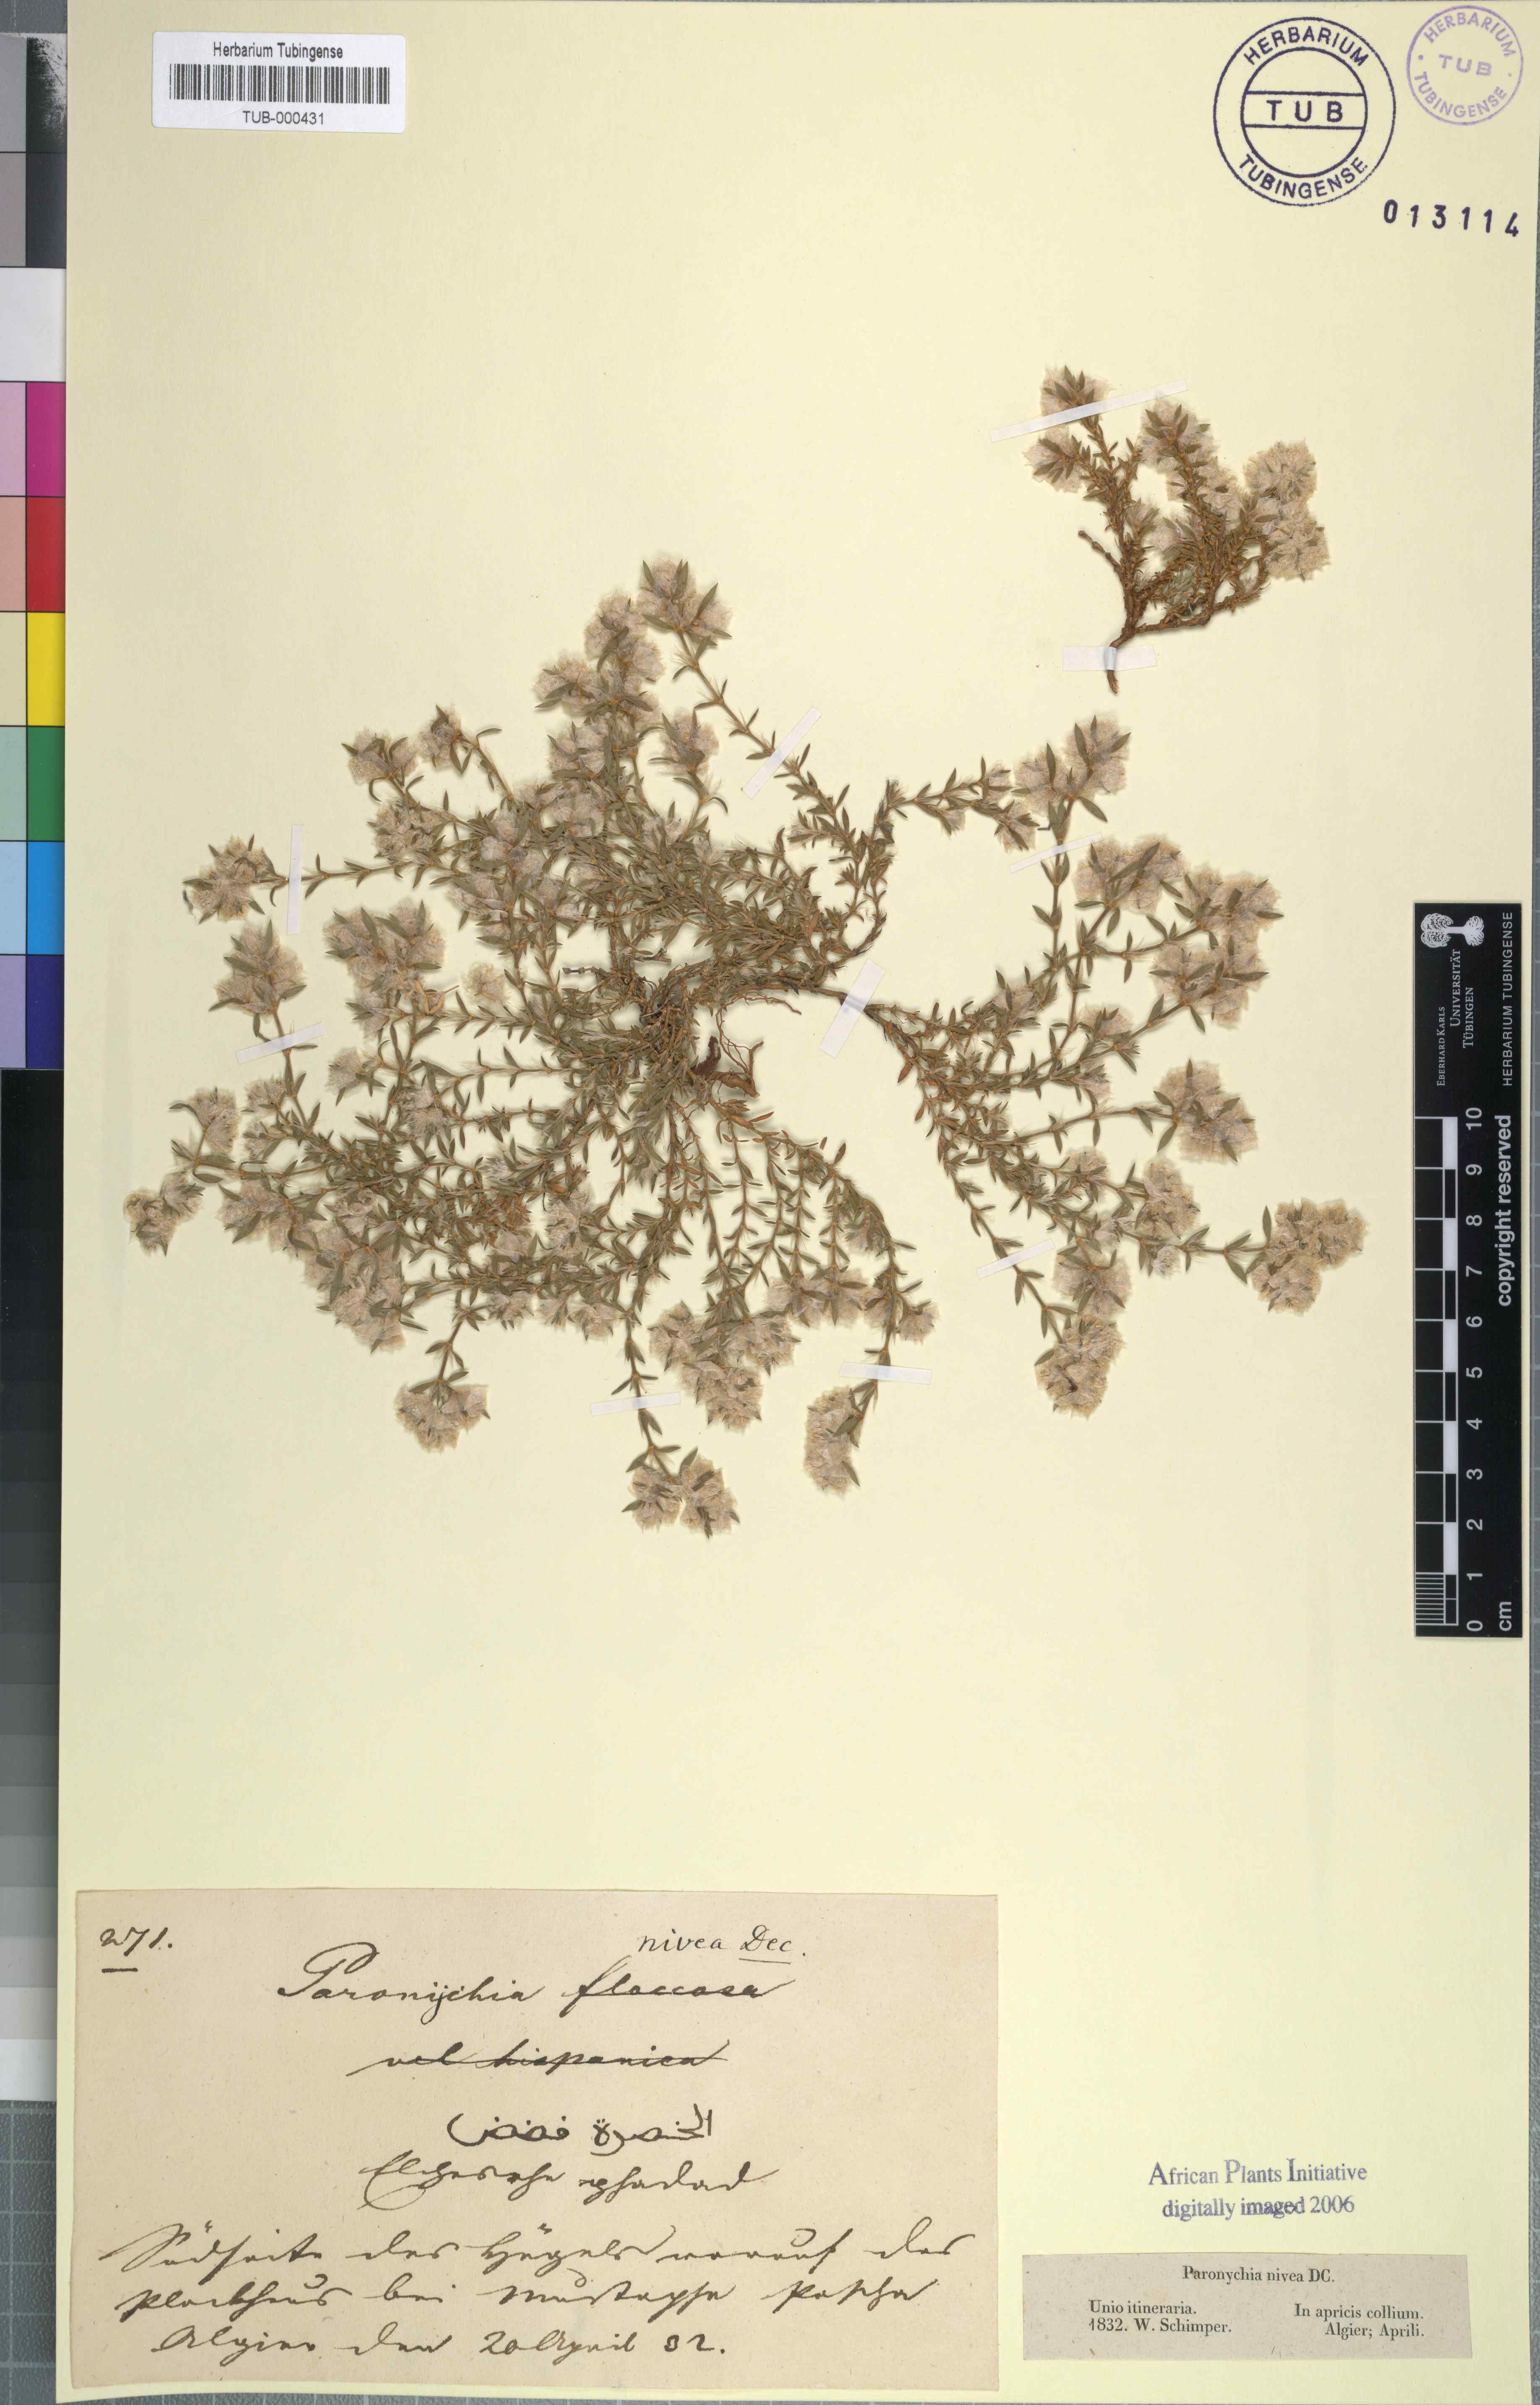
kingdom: Plantae
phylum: Tracheophyta
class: Magnoliopsida
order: Caryophyllales
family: Caryophyllaceae
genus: Paronychia
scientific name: Paronychia capitata
